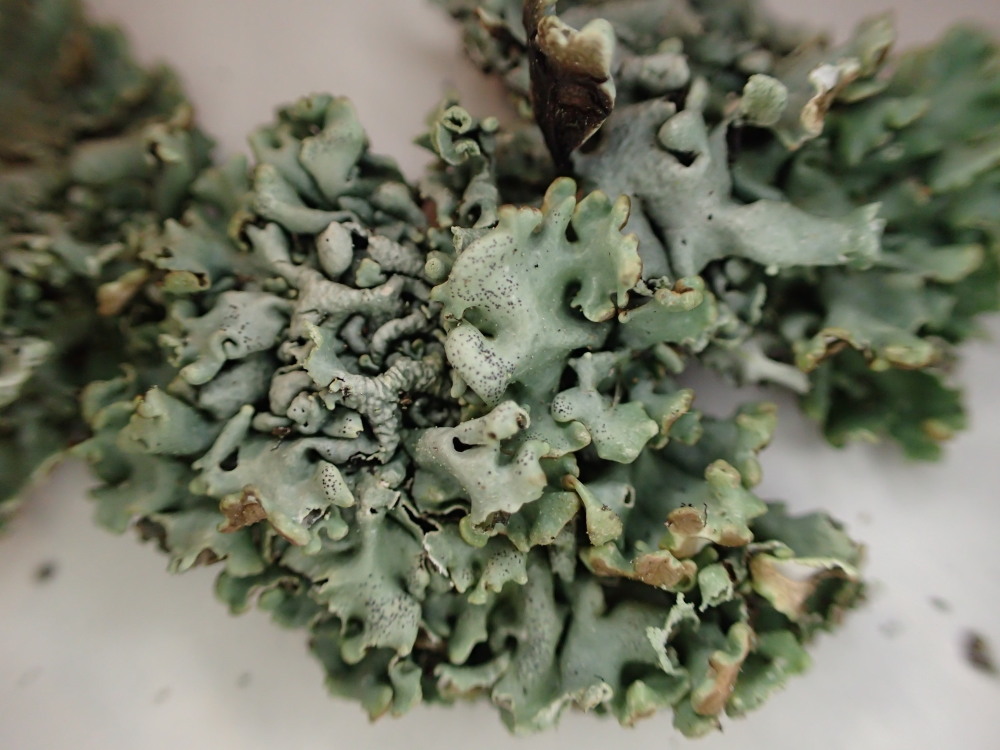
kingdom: Fungi
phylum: Ascomycota
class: Lecanoromycetes
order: Lecanorales
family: Parmeliaceae
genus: Hypogymnia
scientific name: Hypogymnia physodes
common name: almindelig kvistlav
